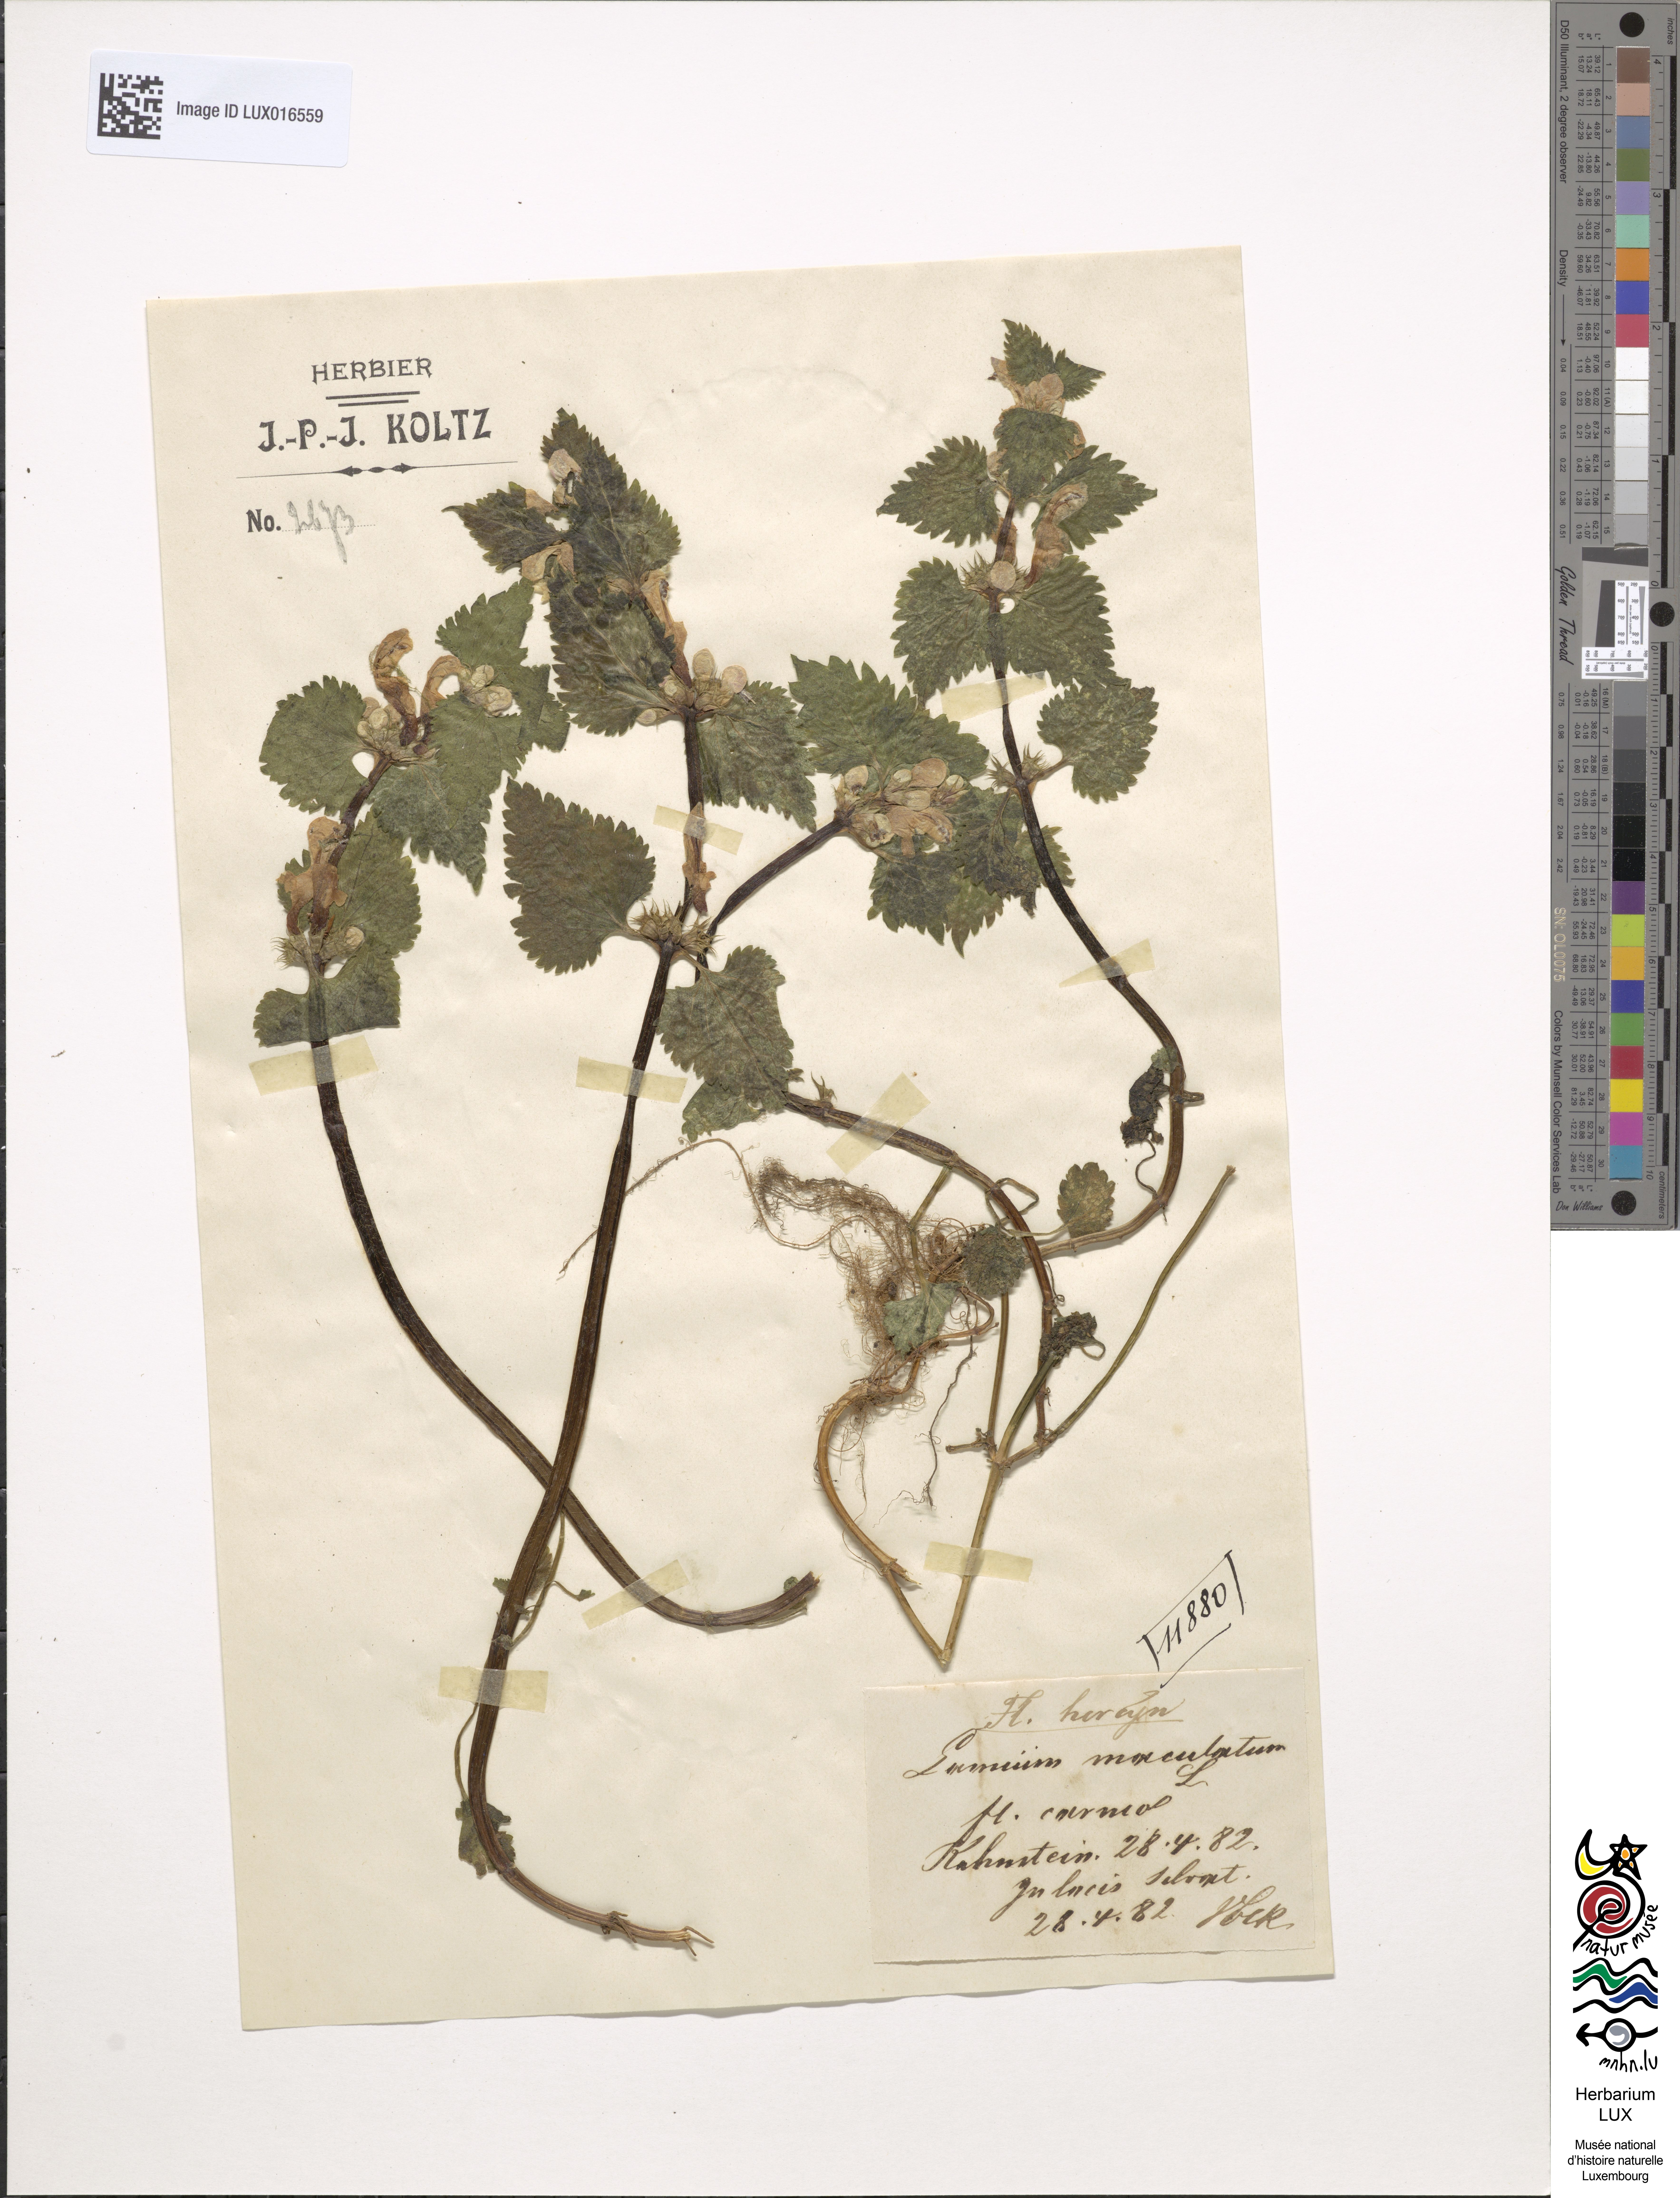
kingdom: Plantae
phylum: Tracheophyta
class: Magnoliopsida
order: Lamiales
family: Lamiaceae
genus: Lamium
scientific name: Lamium maculatum
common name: Spotted dead-nettle
